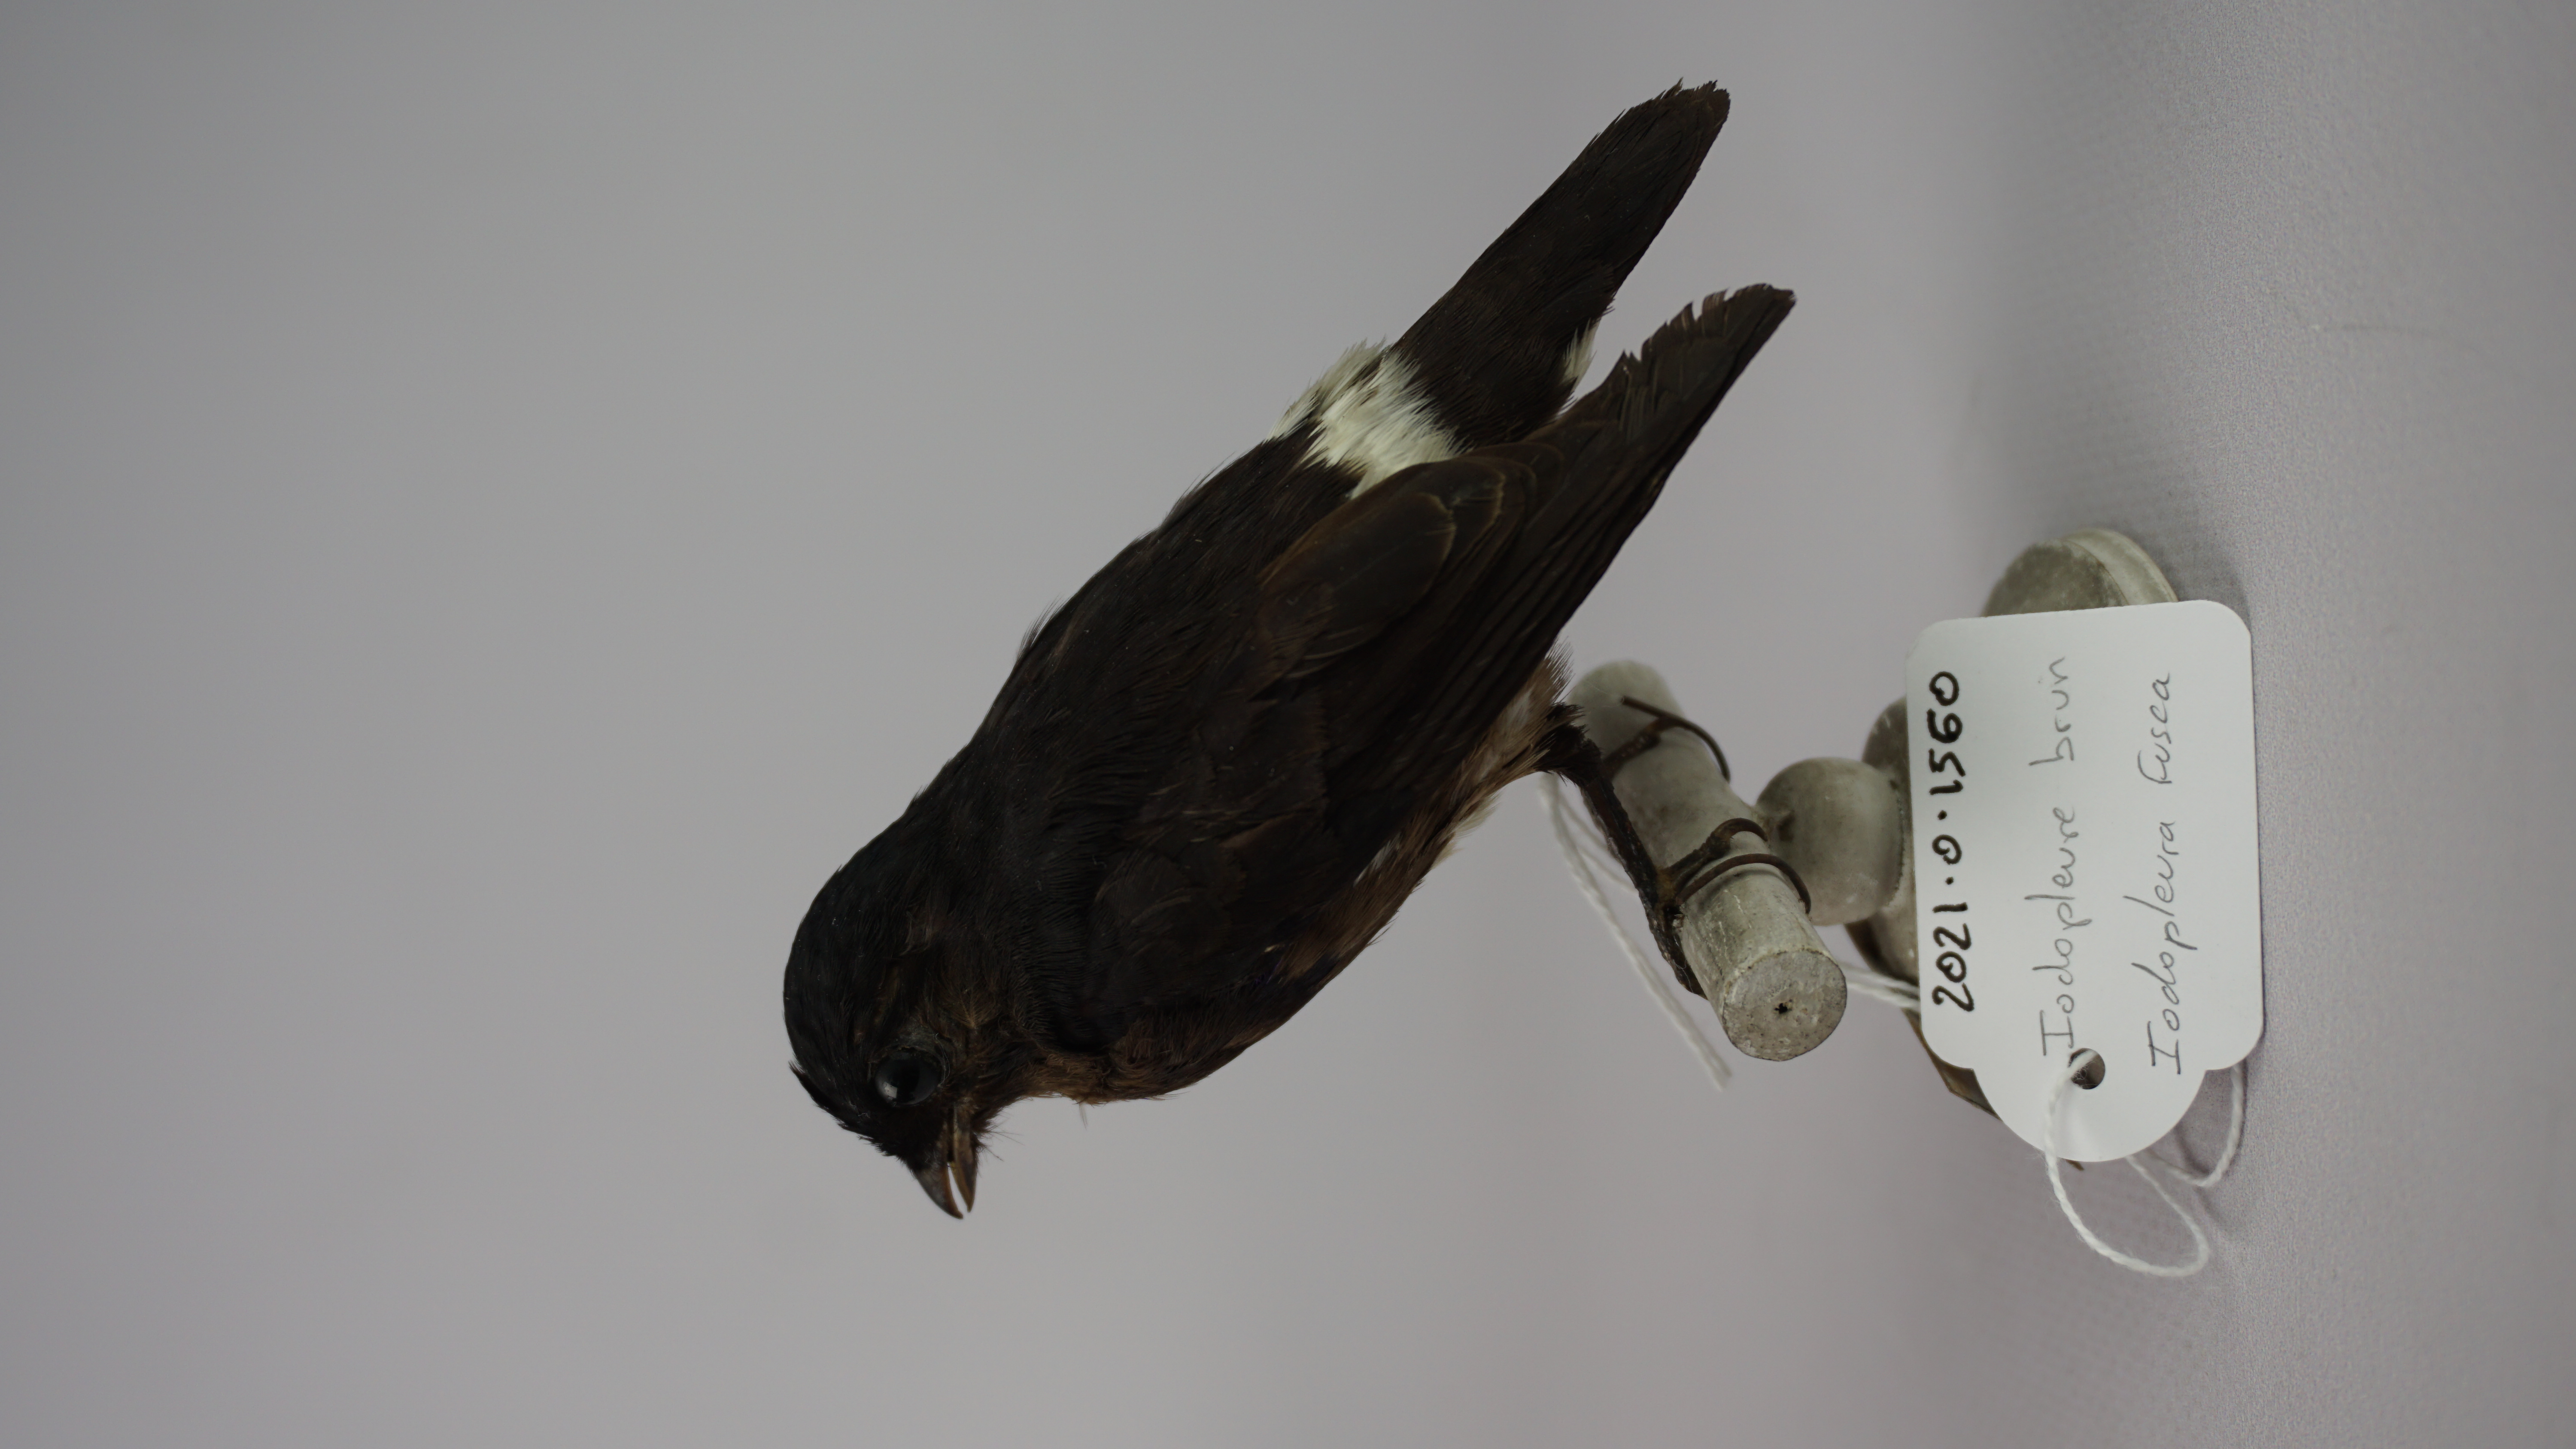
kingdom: Animalia
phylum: Chordata
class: Aves
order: Passeriformes
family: Cotingidae
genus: Iodopleura
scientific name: Iodopleura fusca
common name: Dusky purpletuft
